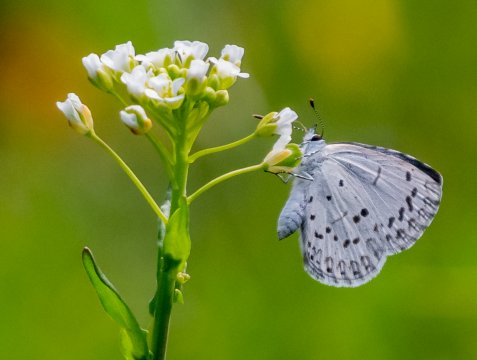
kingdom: Animalia
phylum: Arthropoda
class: Insecta
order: Lepidoptera
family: Lycaenidae
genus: Elkalyce
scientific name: Elkalyce comyntas
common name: Eastern Tailed-Blue
